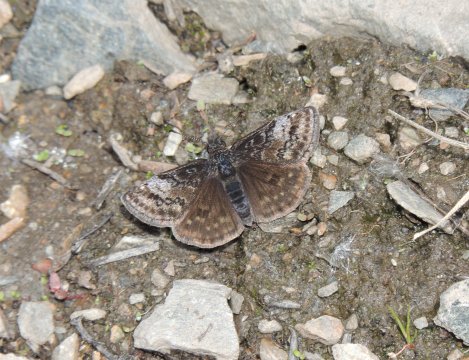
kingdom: Animalia
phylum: Arthropoda
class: Insecta
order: Lepidoptera
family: Hesperiidae
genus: Erynnis
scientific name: Erynnis icelus
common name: Dreamy Duskywing
